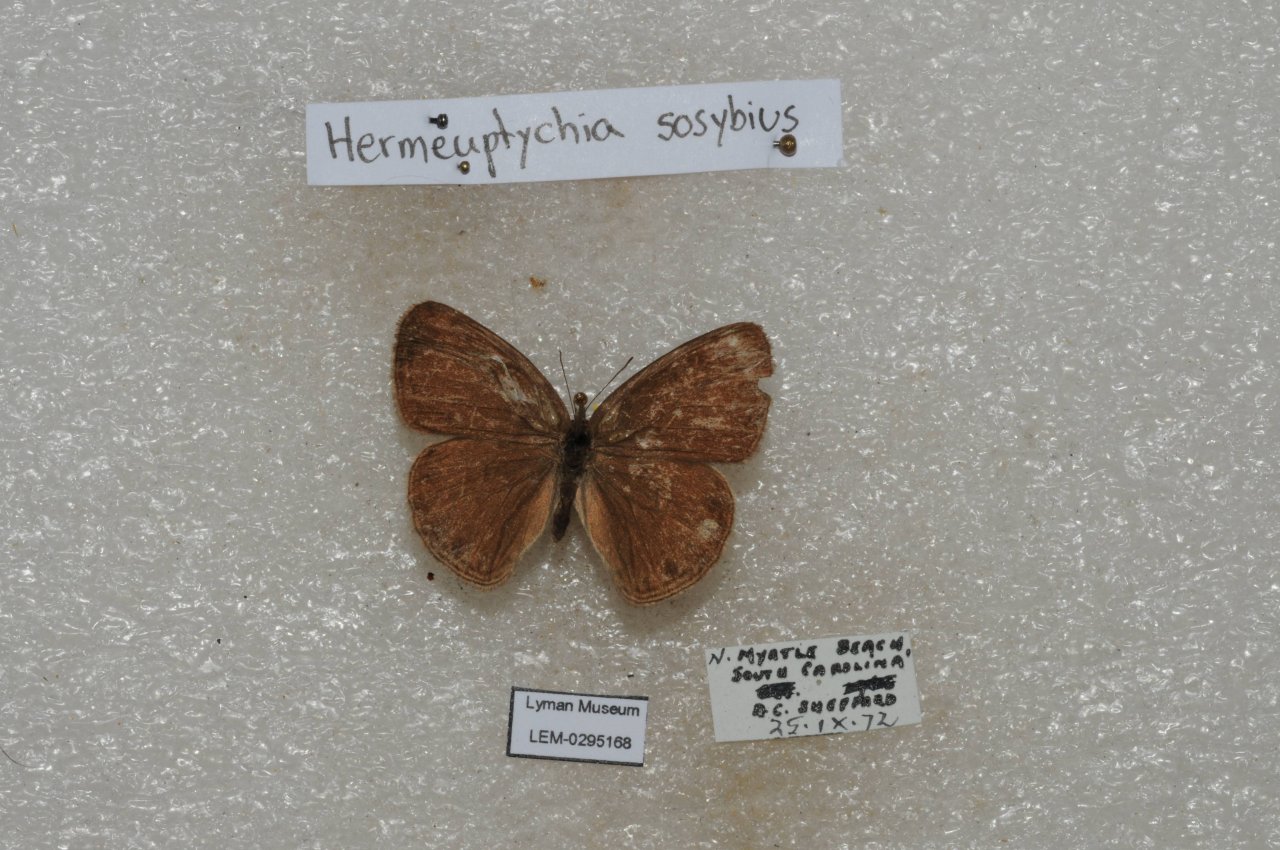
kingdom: Animalia
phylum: Arthropoda
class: Insecta
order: Lepidoptera
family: Nymphalidae
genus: Hermeuptychia
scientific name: Hermeuptychia hermes
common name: Carolina Satyr
